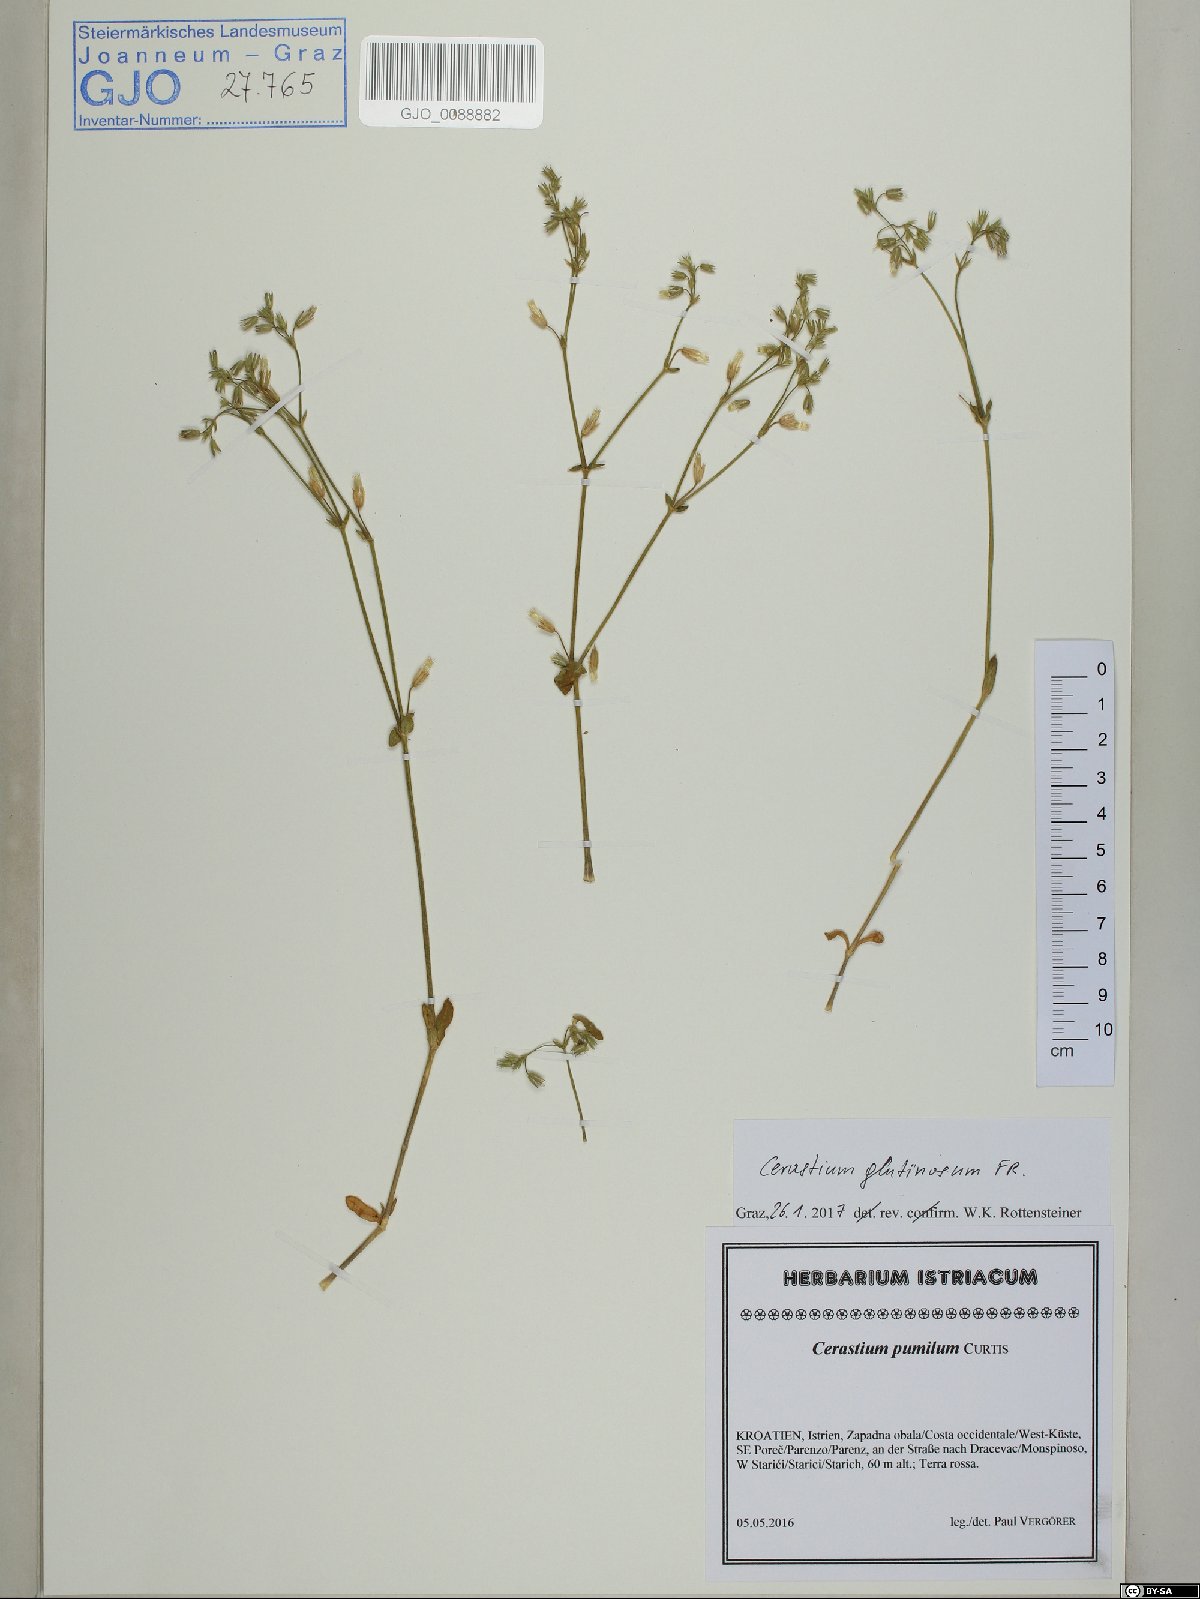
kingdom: Plantae
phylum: Tracheophyta
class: Magnoliopsida
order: Caryophyllales
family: Caryophyllaceae
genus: Cerastium
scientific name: Cerastium glutinosum
